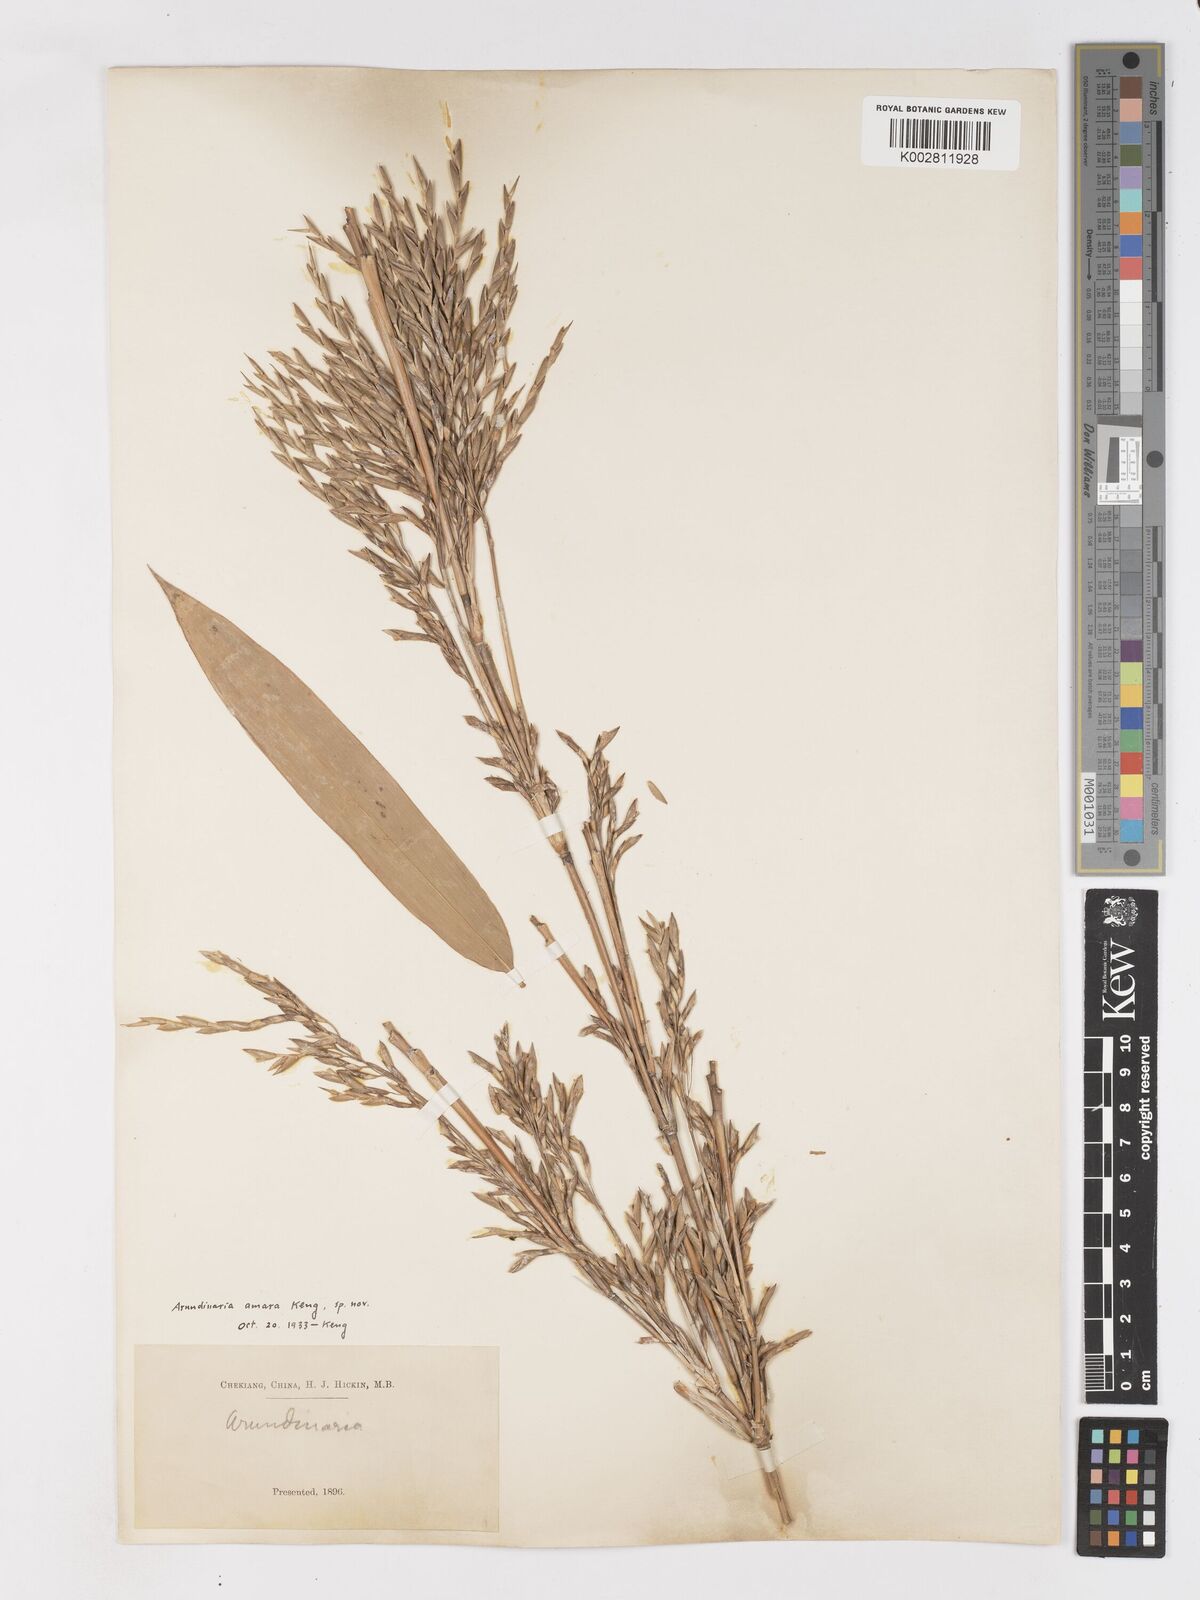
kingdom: Plantae
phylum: Tracheophyta
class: Liliopsida
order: Poales
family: Poaceae
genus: Pleioblastus
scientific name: Pleioblastus amarus
